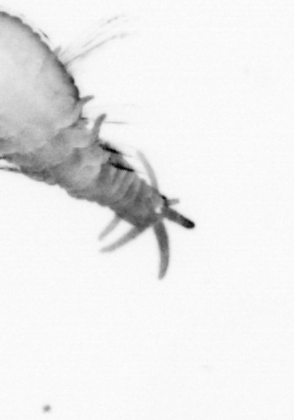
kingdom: Animalia
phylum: Annelida
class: Polychaeta
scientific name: Polychaeta
